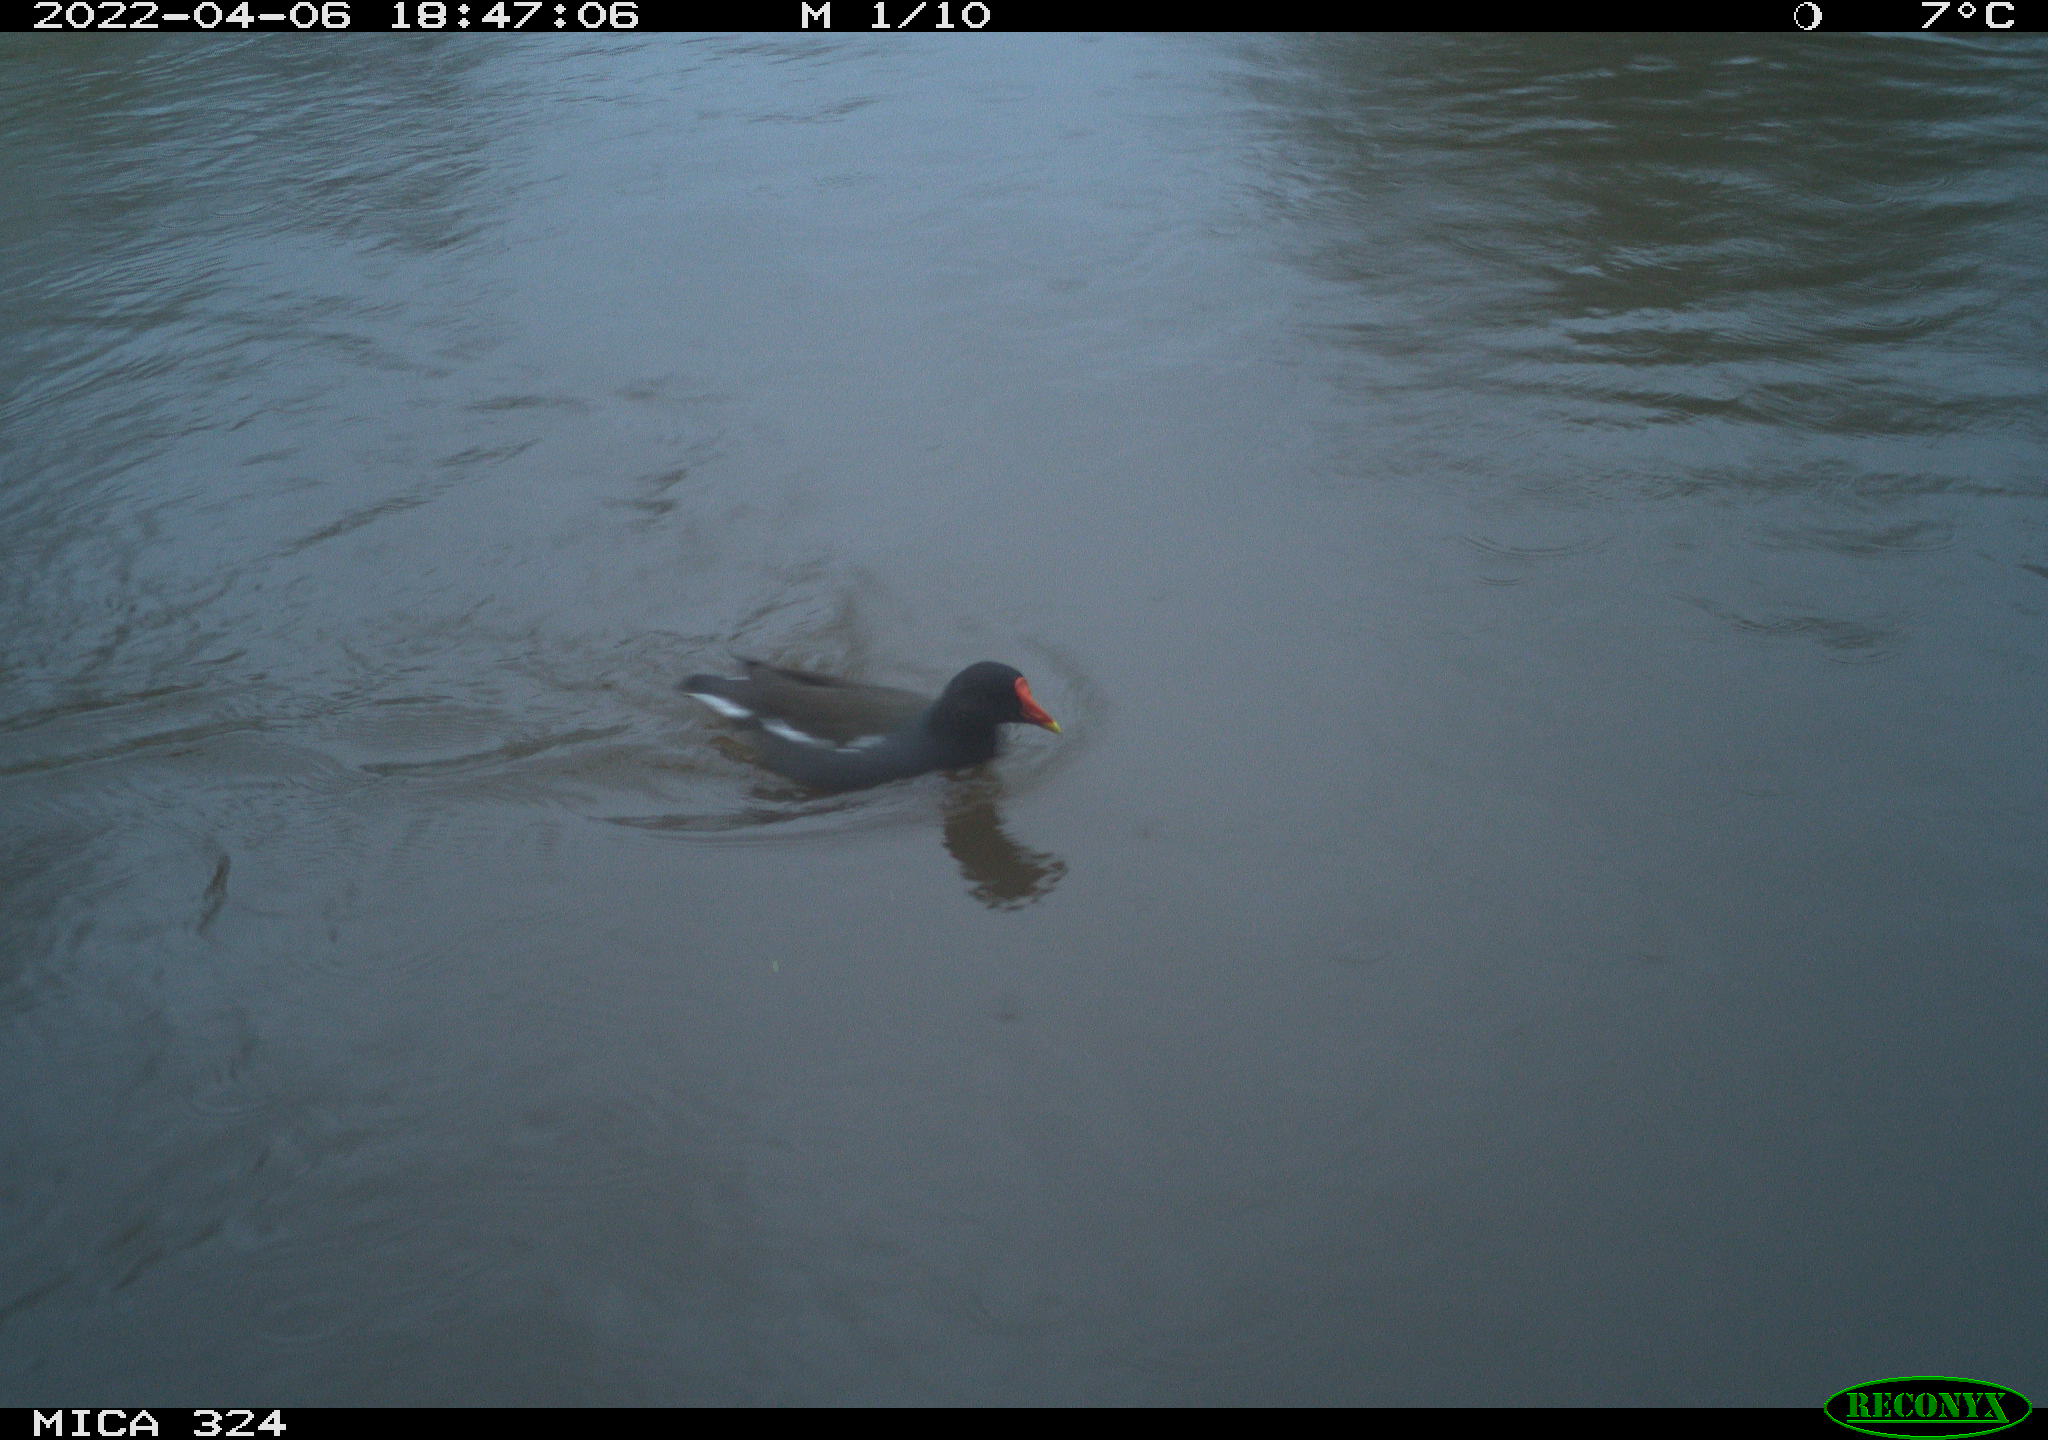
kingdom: Animalia
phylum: Chordata
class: Aves
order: Gruiformes
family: Rallidae
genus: Gallinula
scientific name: Gallinula chloropus
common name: Common moorhen
